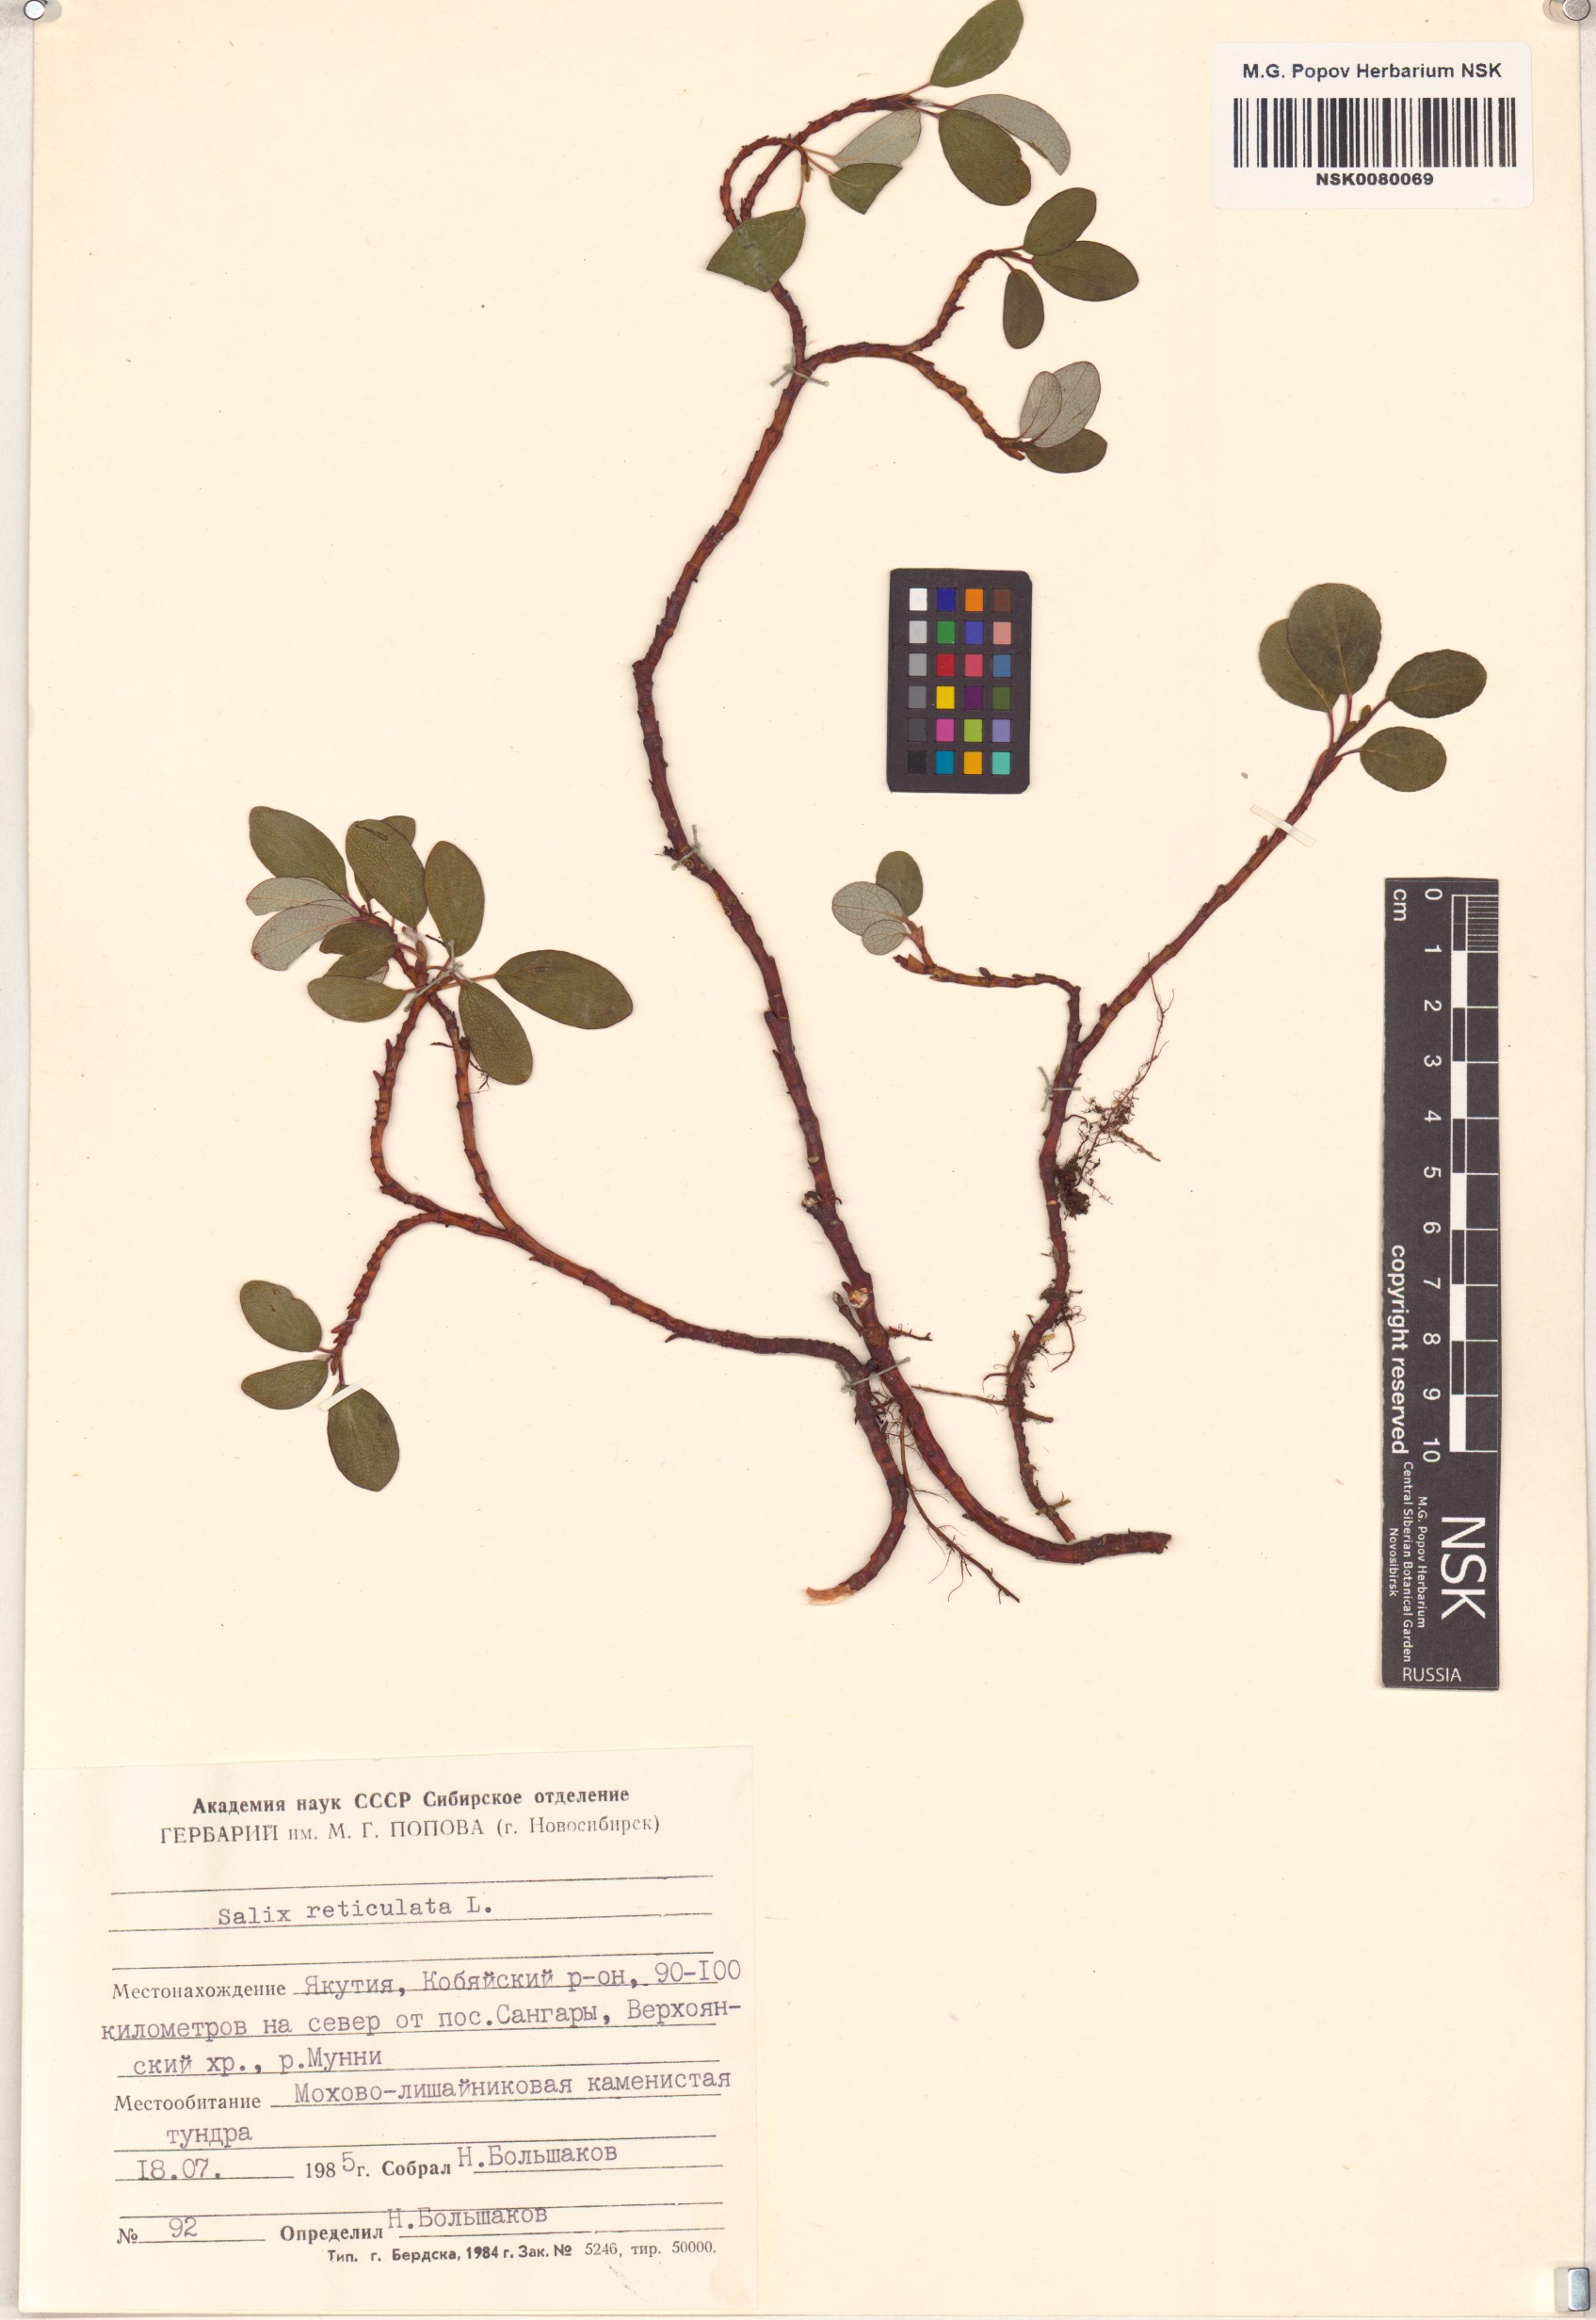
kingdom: Plantae
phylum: Tracheophyta
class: Magnoliopsida
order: Malpighiales
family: Salicaceae
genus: Salix
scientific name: Salix reticulata
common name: Net-leaved willow
